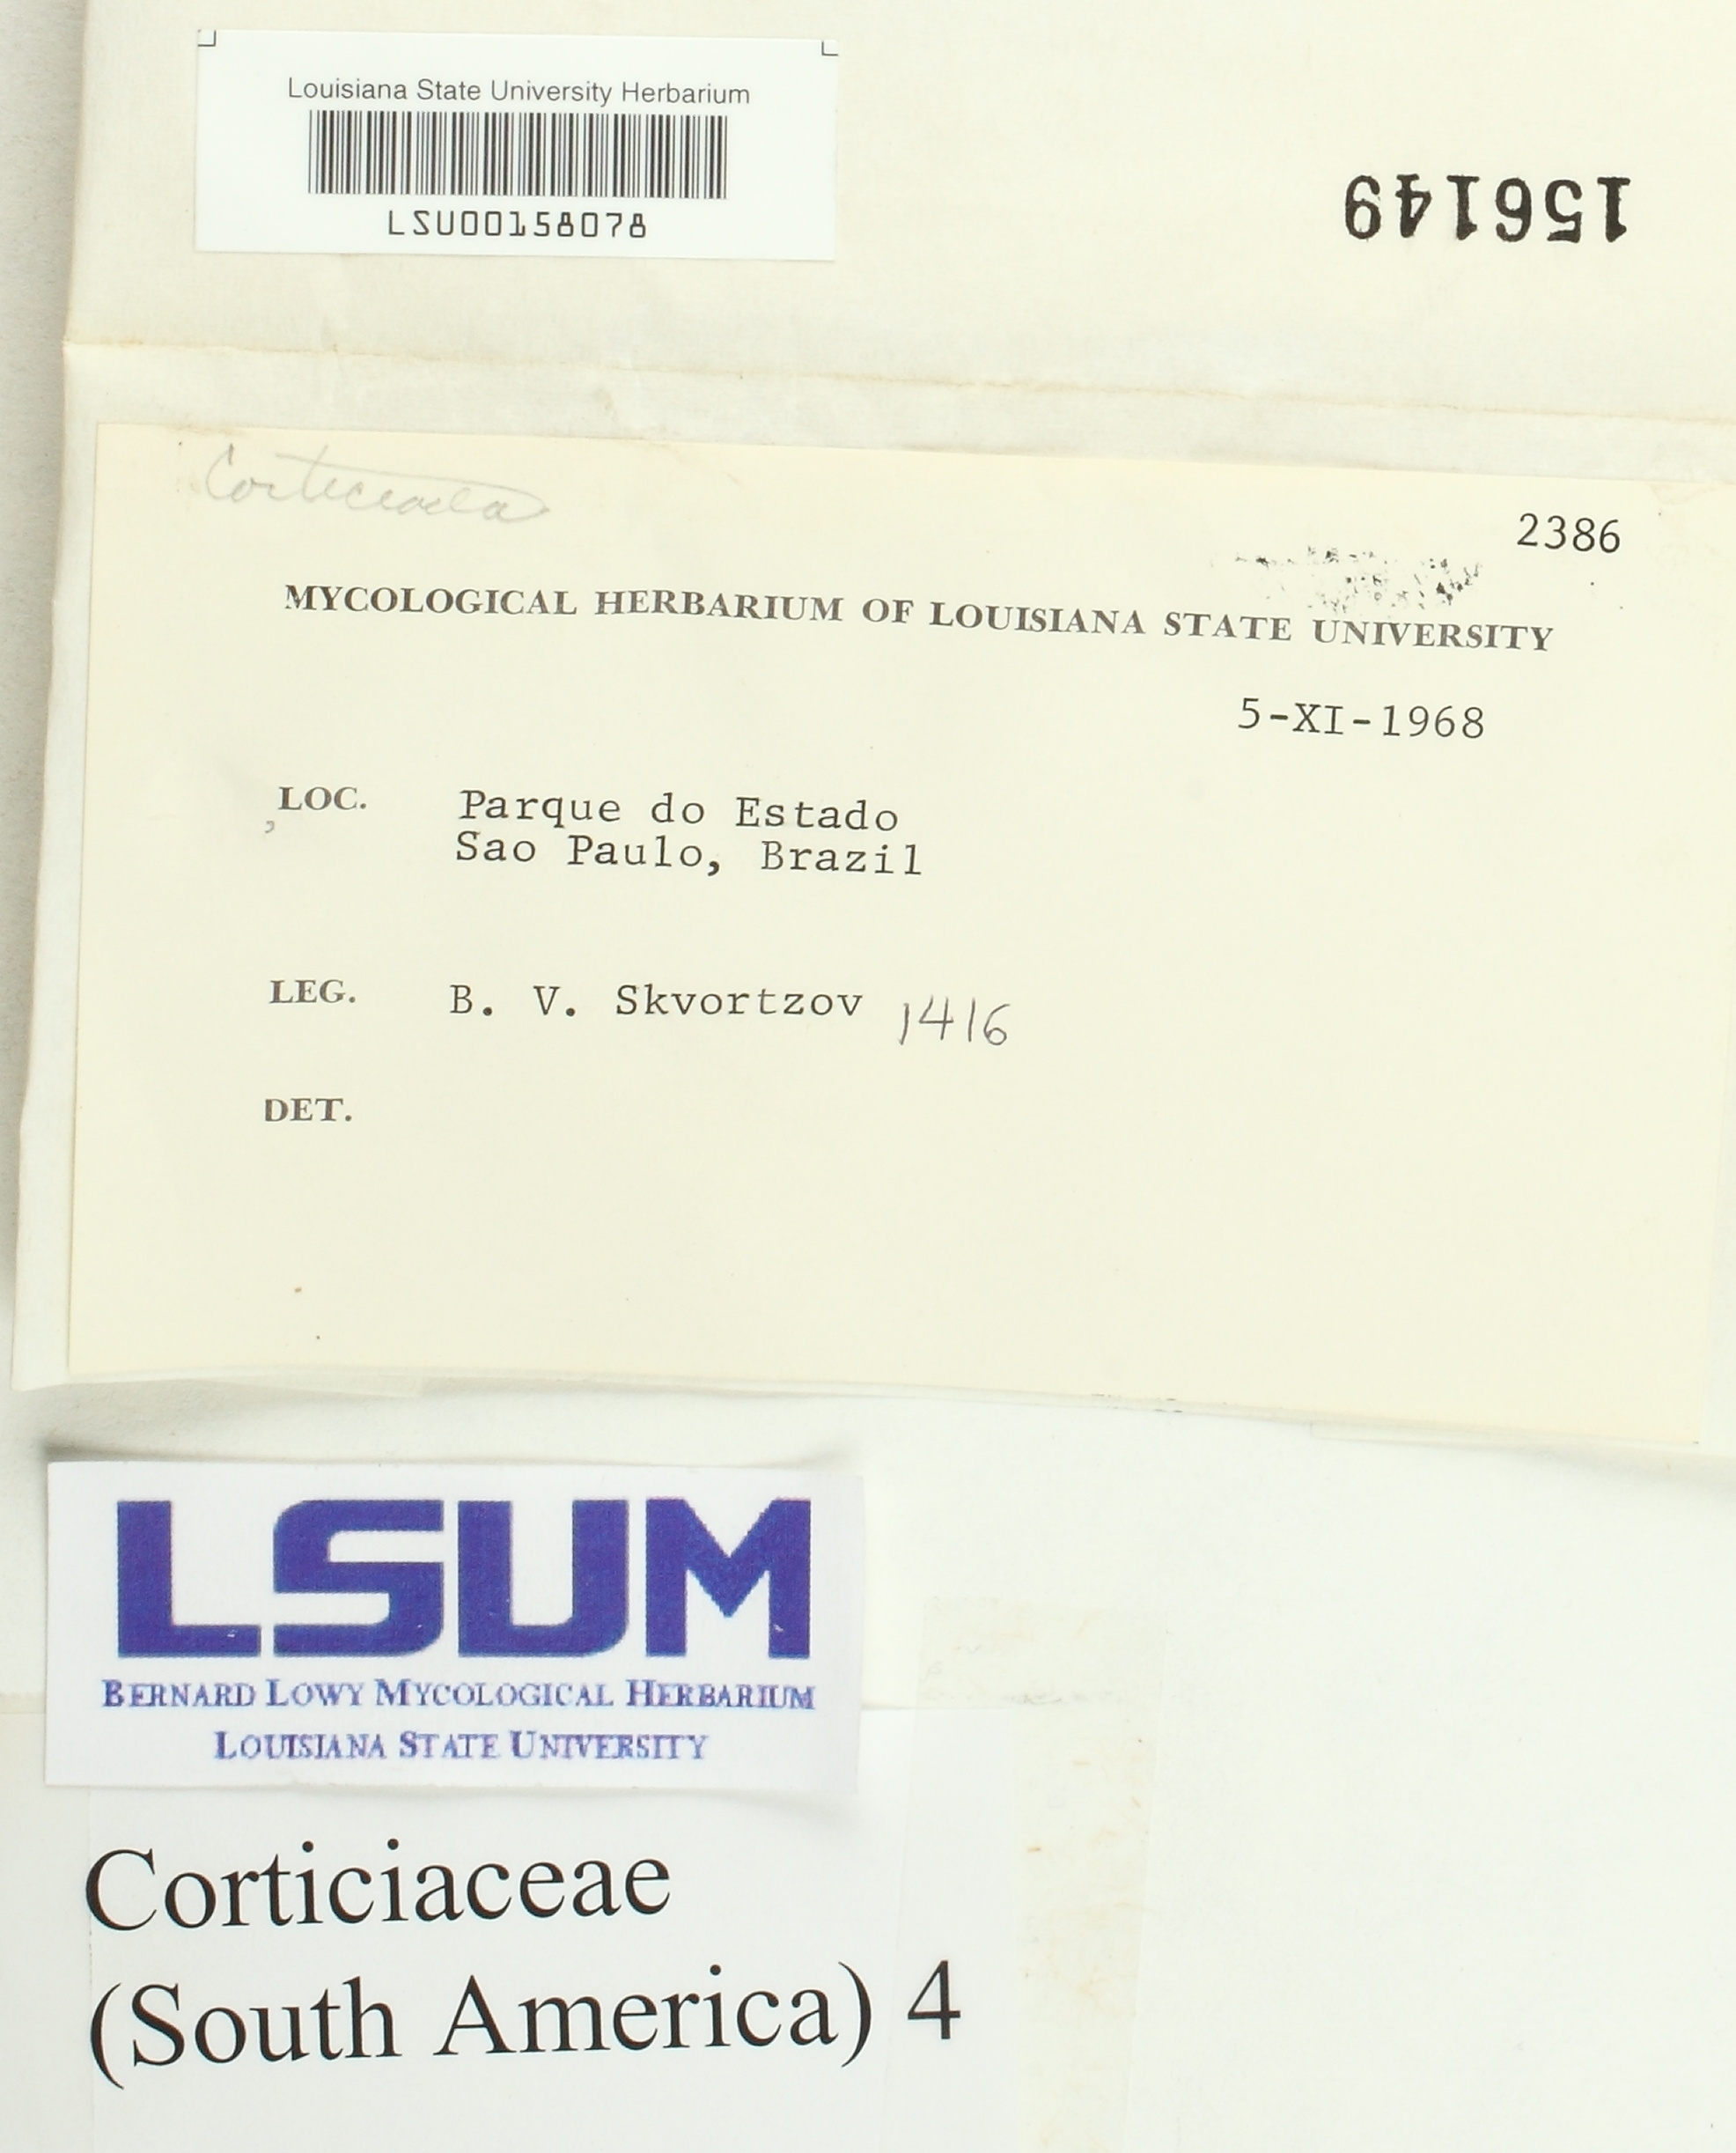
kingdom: Fungi
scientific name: Fungi
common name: Fungi
